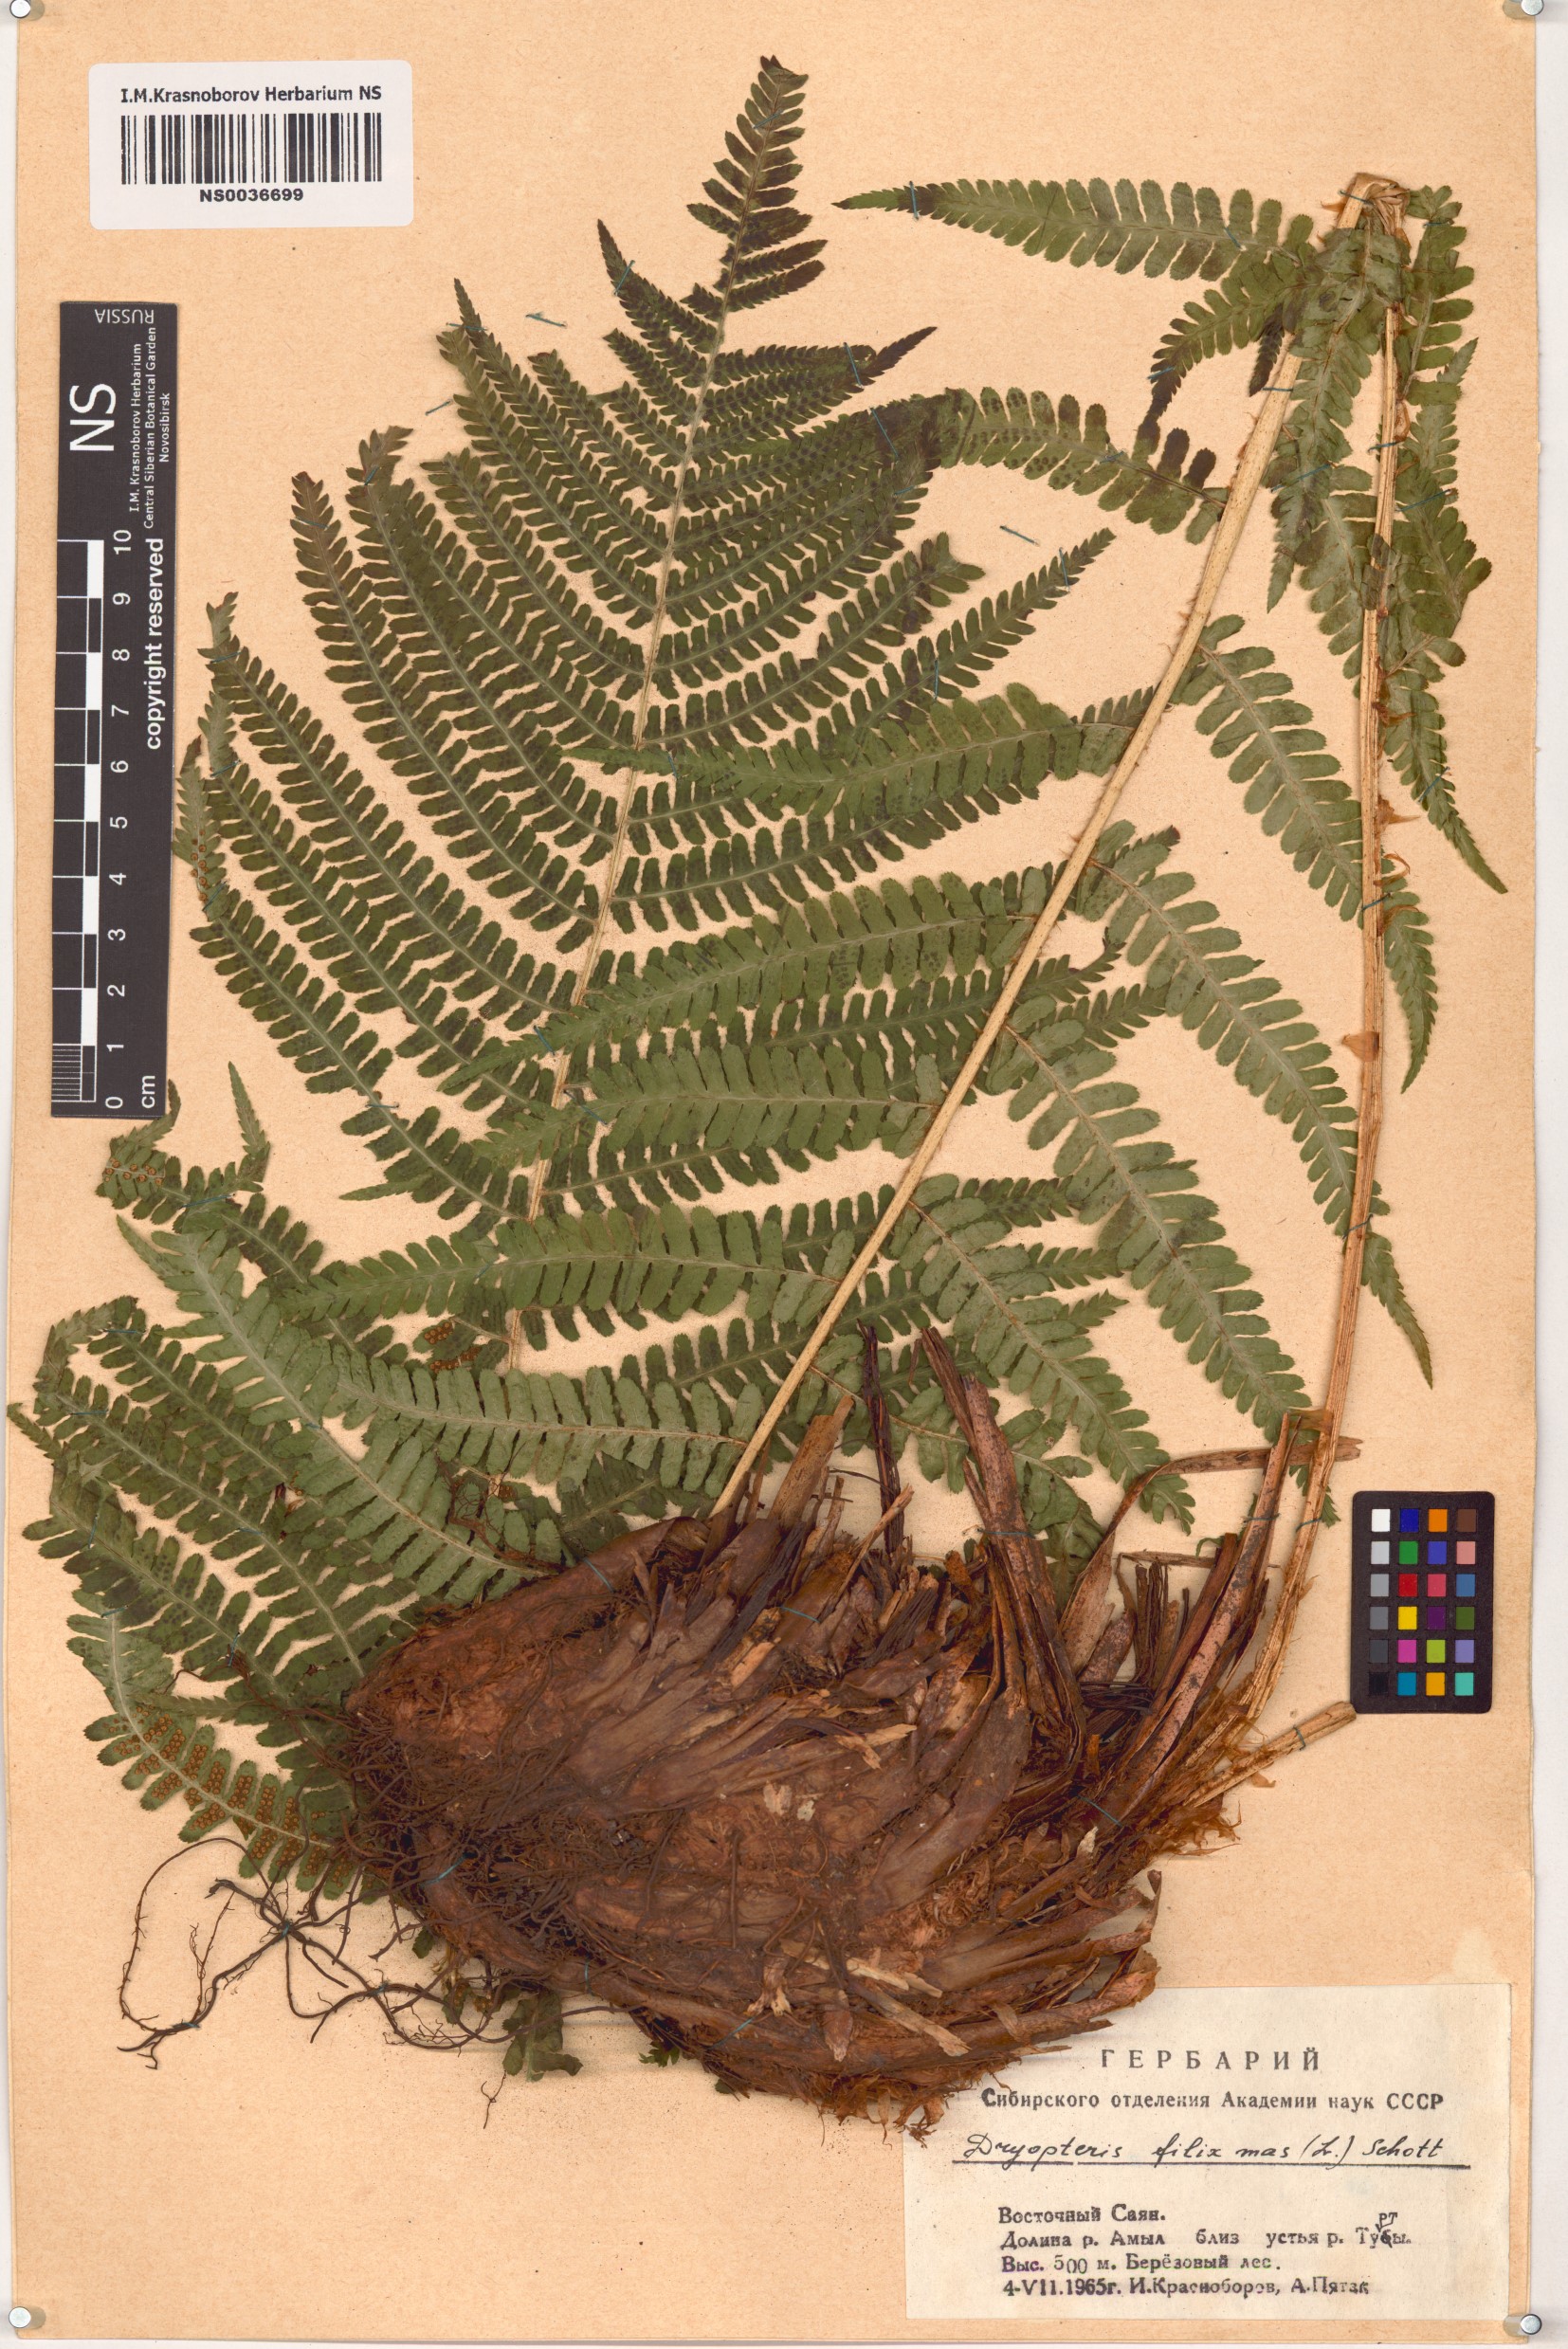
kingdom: Plantae
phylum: Tracheophyta
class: Polypodiopsida
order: Polypodiales
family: Dryopteridaceae
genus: Dryopteris
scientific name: Dryopteris filix-mas
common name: Male fern
